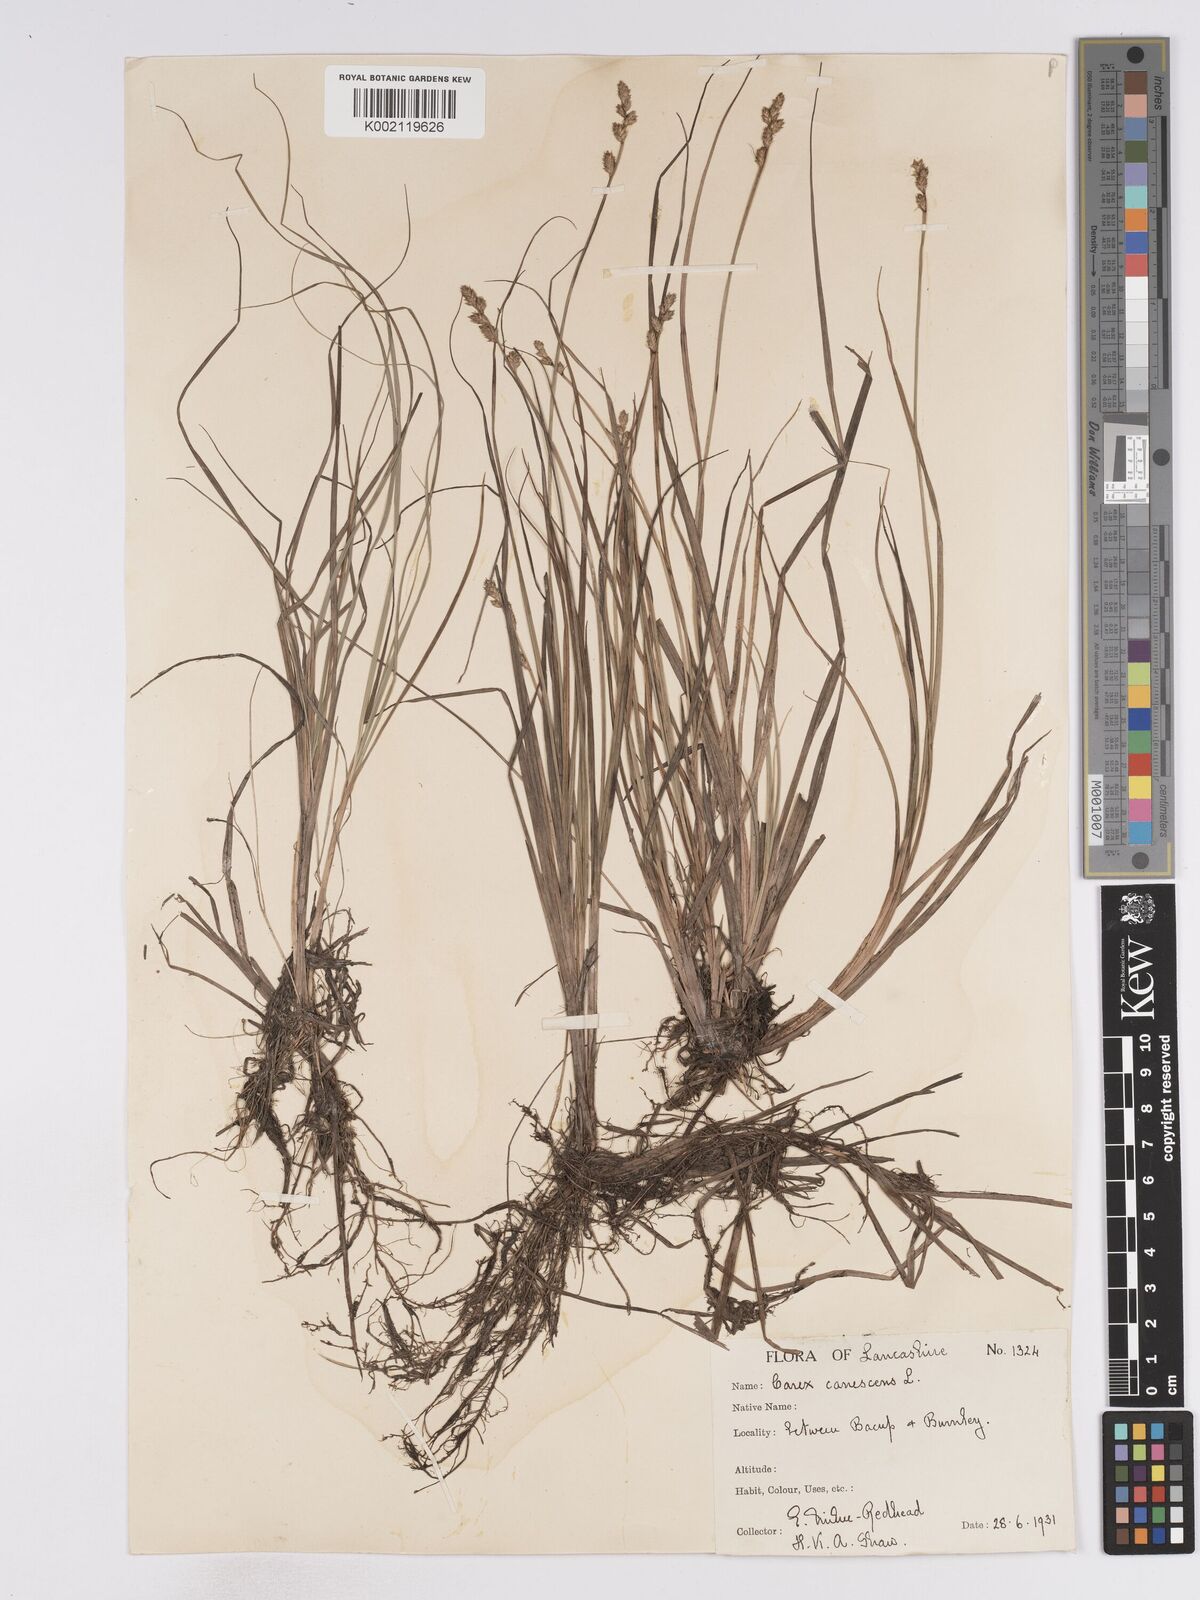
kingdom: Plantae
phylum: Tracheophyta
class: Liliopsida
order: Poales
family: Cyperaceae
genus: Carex
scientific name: Carex curta
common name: White sedge
